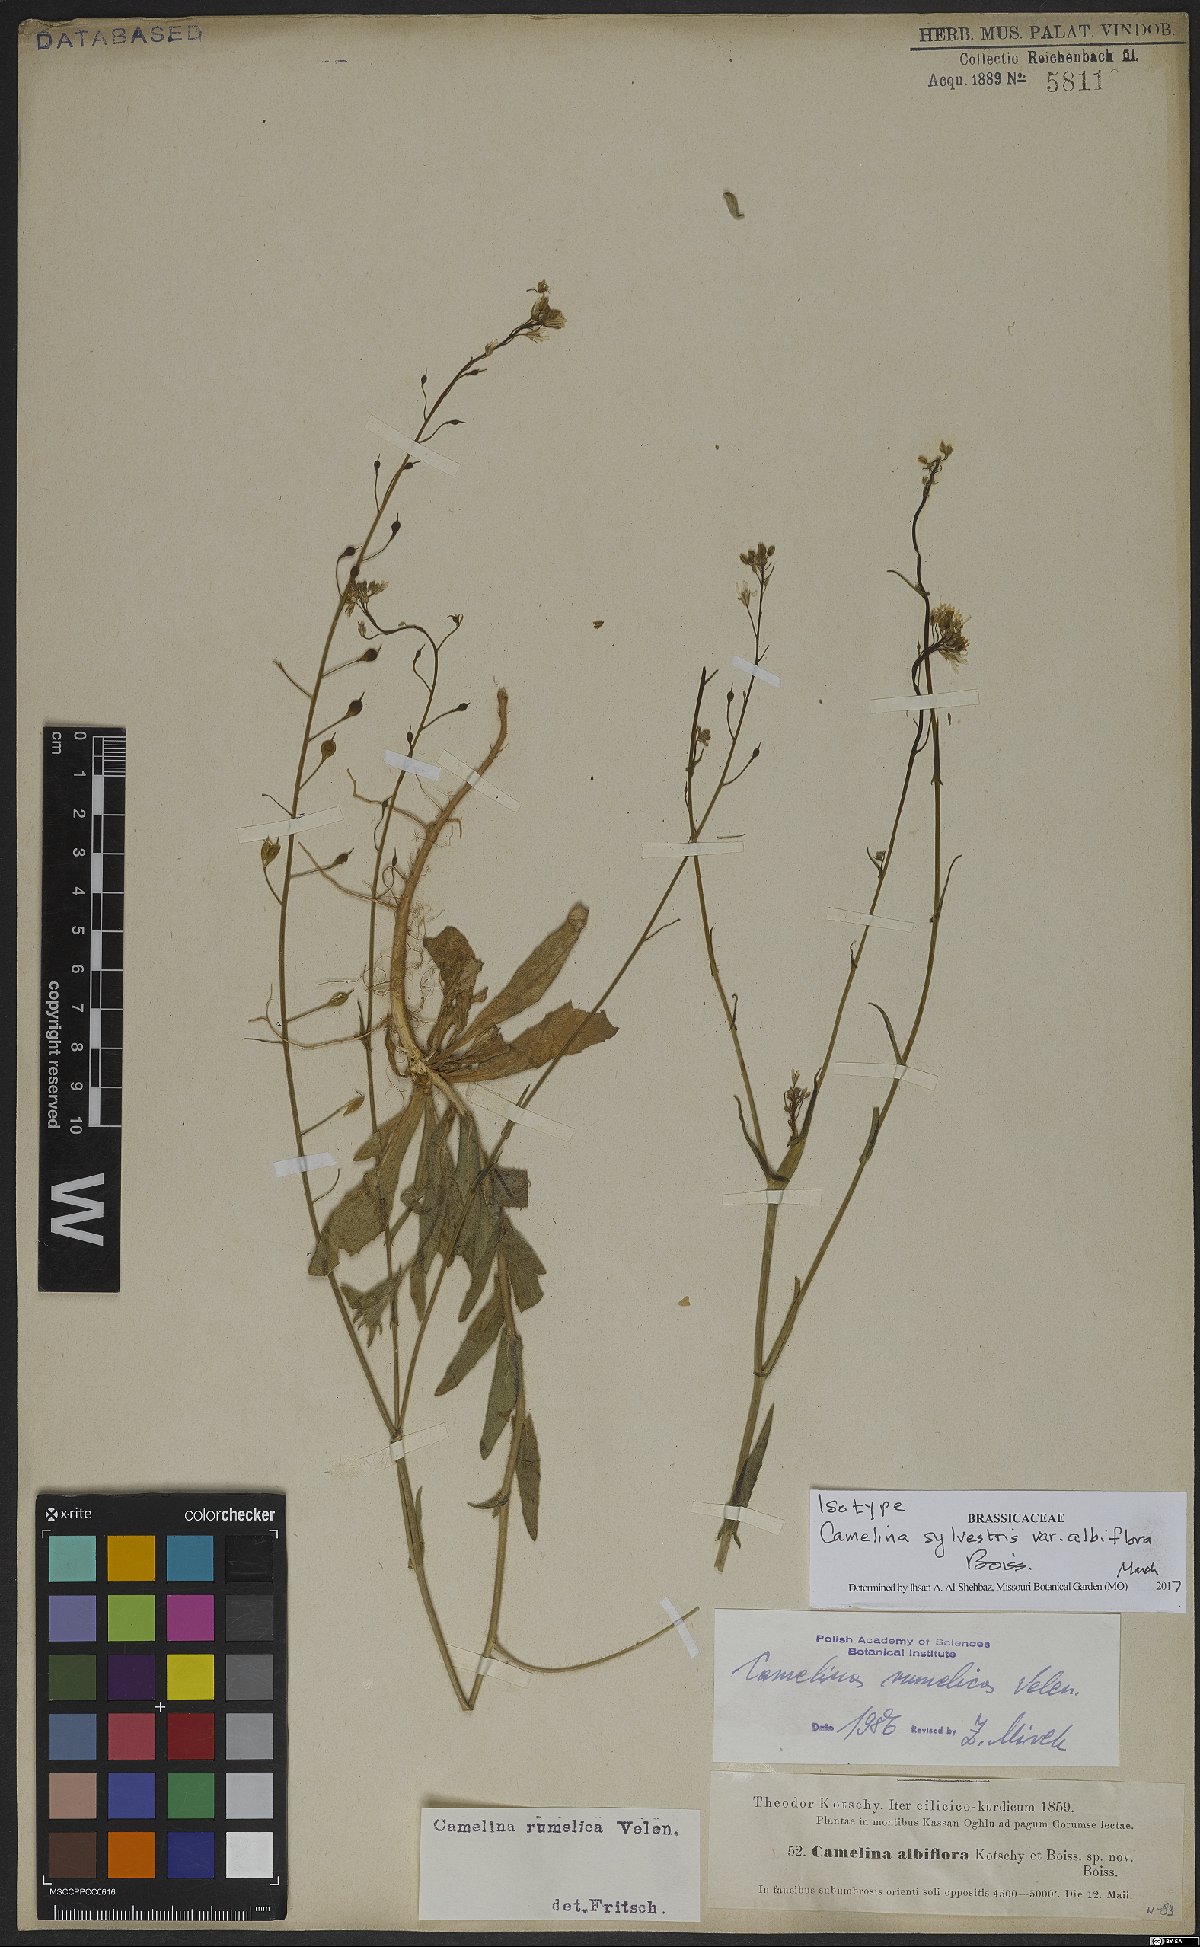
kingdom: Plantae
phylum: Tracheophyta
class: Magnoliopsida
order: Brassicales
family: Brassicaceae
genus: Camelina
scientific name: Camelina rumelica
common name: Graceful false flax
